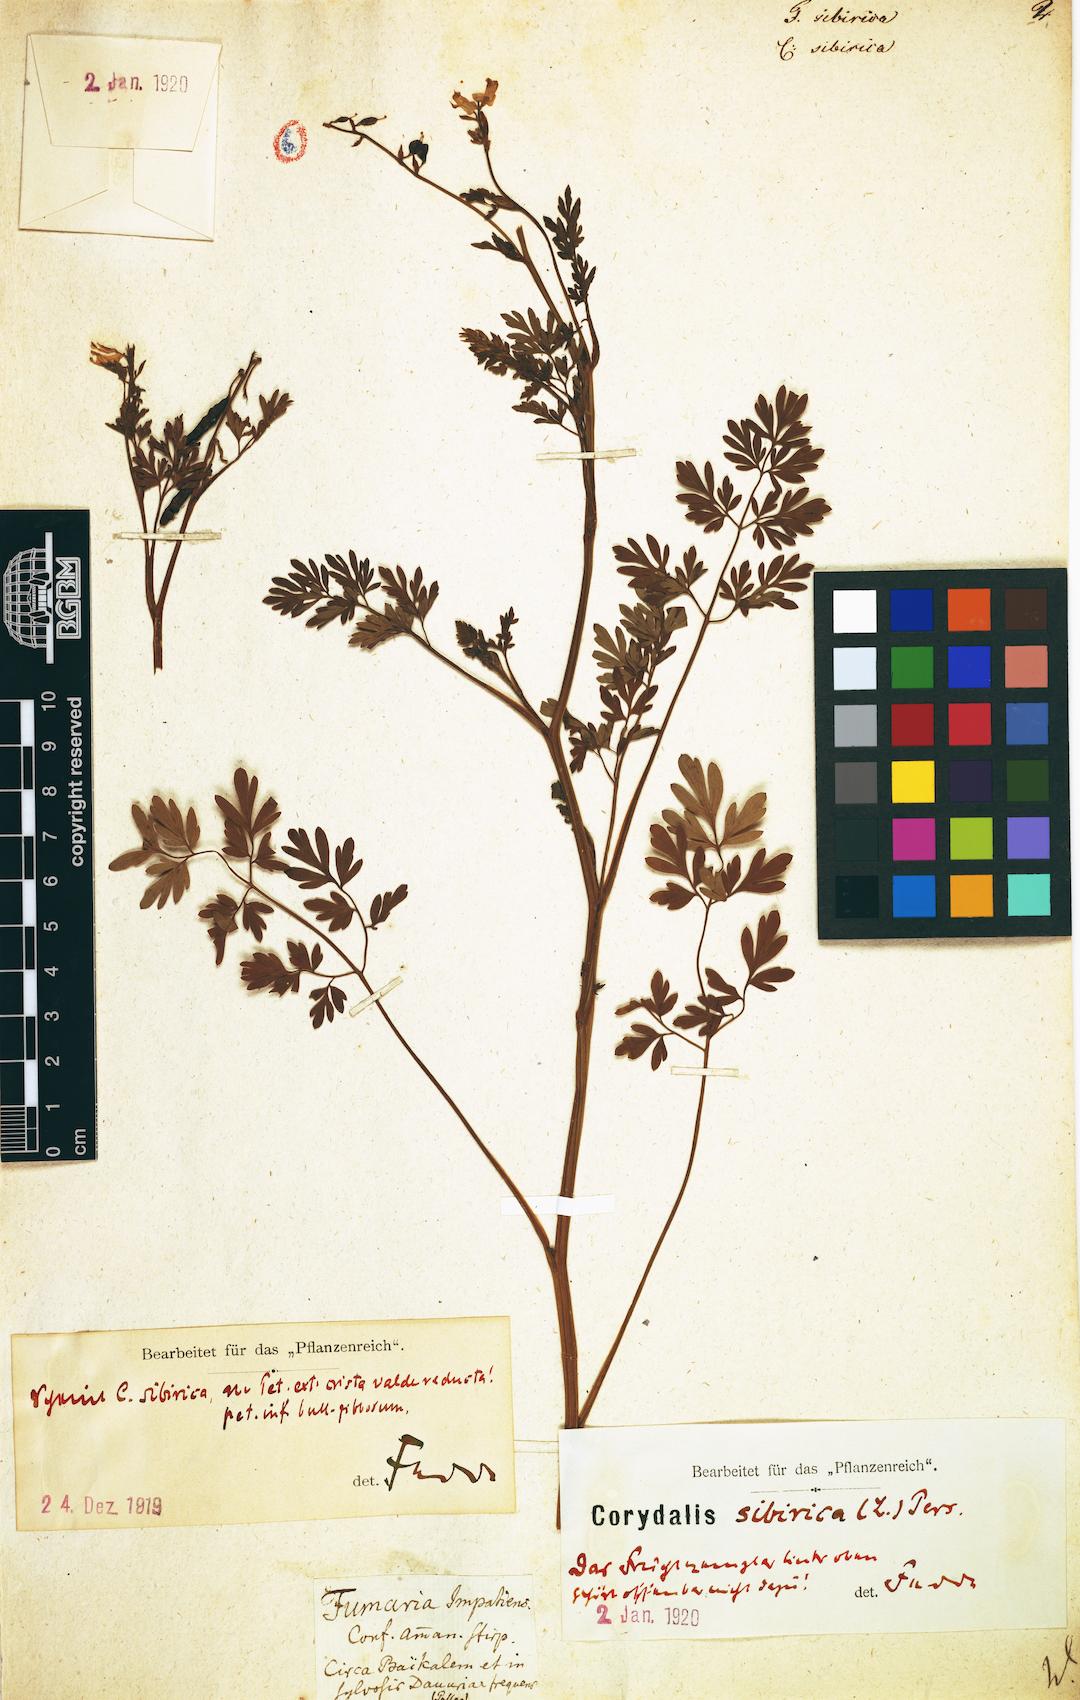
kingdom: Plantae
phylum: Tracheophyta
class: Magnoliopsida
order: Ranunculales
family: Papaveraceae
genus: Corydalis
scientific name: Corydalis sibirica
